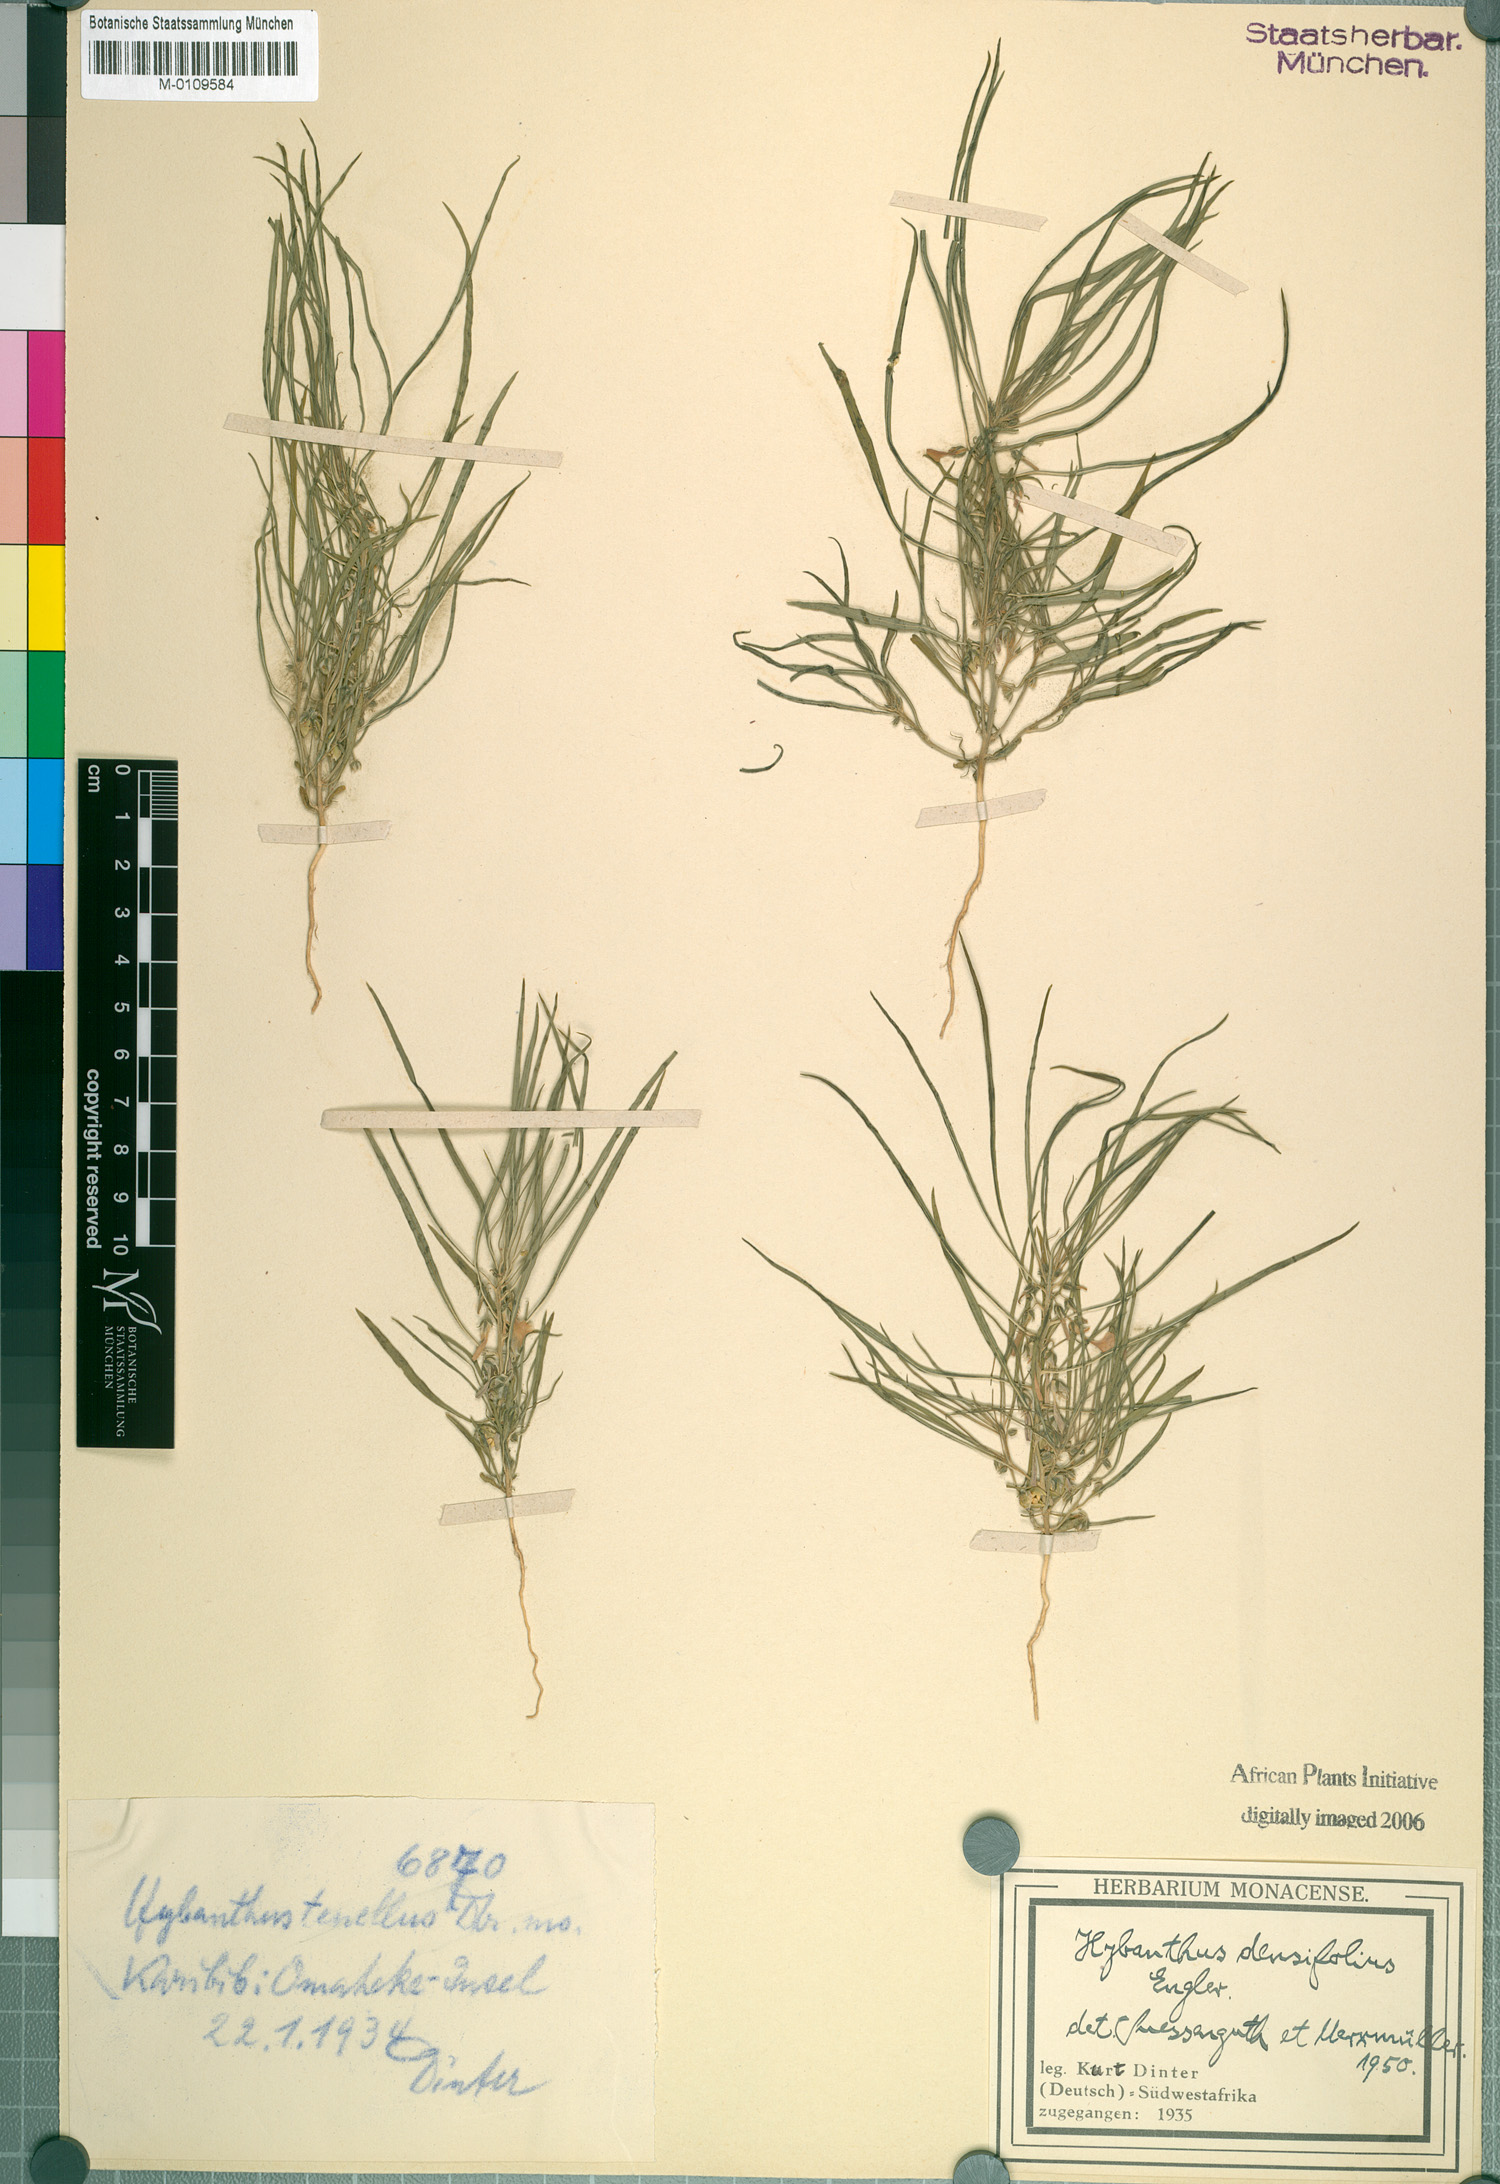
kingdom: Plantae
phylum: Tracheophyta
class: Magnoliopsida
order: Malpighiales
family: Violaceae
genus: Pigea
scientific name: Pigea densifolia
